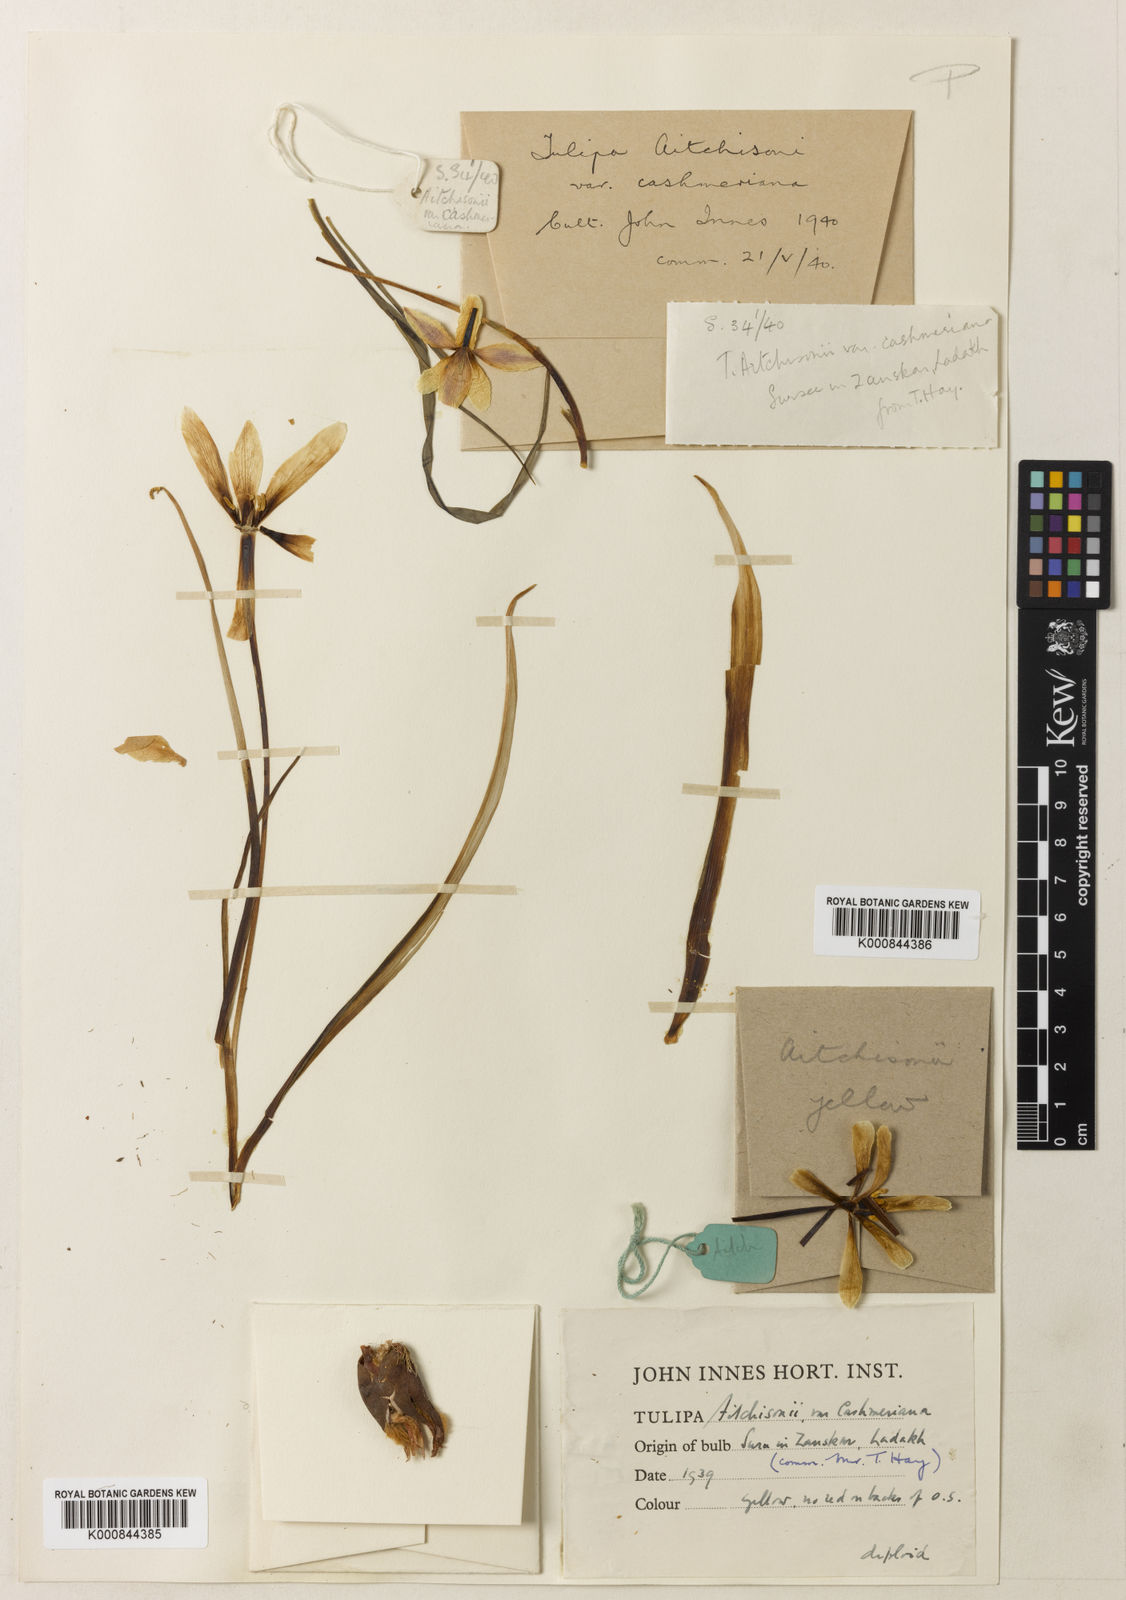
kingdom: Plantae
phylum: Tracheophyta
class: Liliopsida
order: Liliales
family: Liliaceae
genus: Tulipa
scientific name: Tulipa clusiana
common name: Lady tulip
